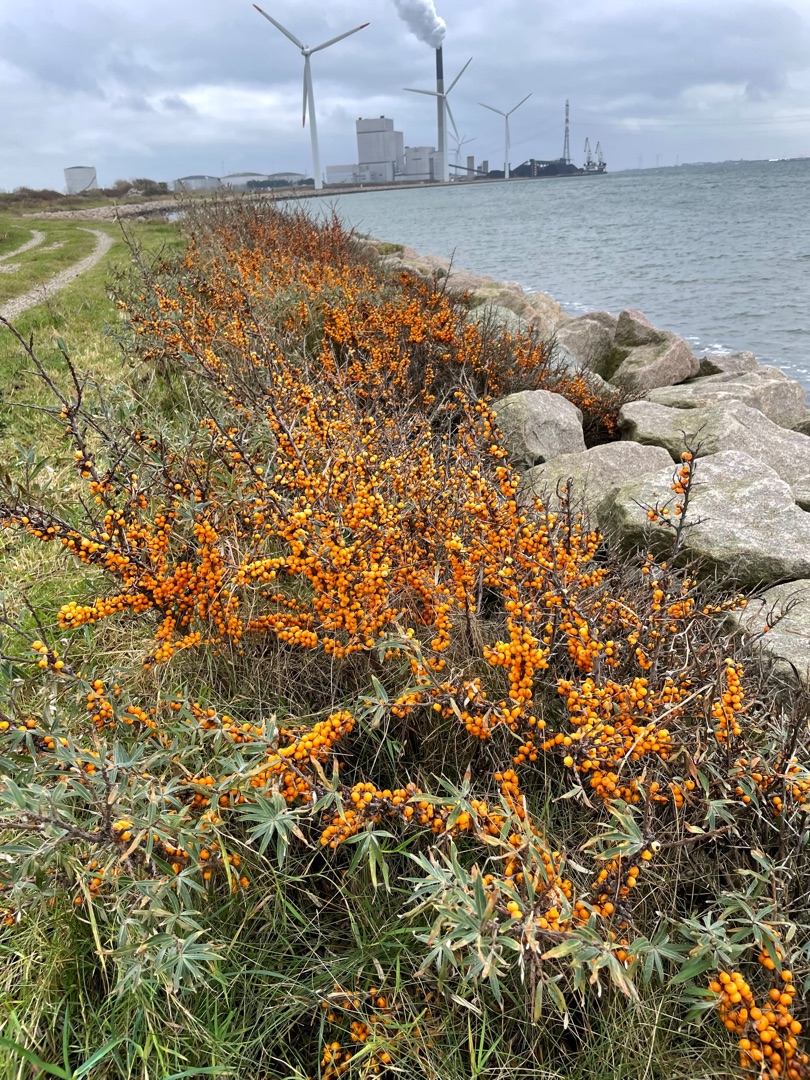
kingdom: Plantae
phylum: Tracheophyta
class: Magnoliopsida
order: Rosales
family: Elaeagnaceae
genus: Hippophae
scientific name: Hippophae rhamnoides
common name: Havtorn
